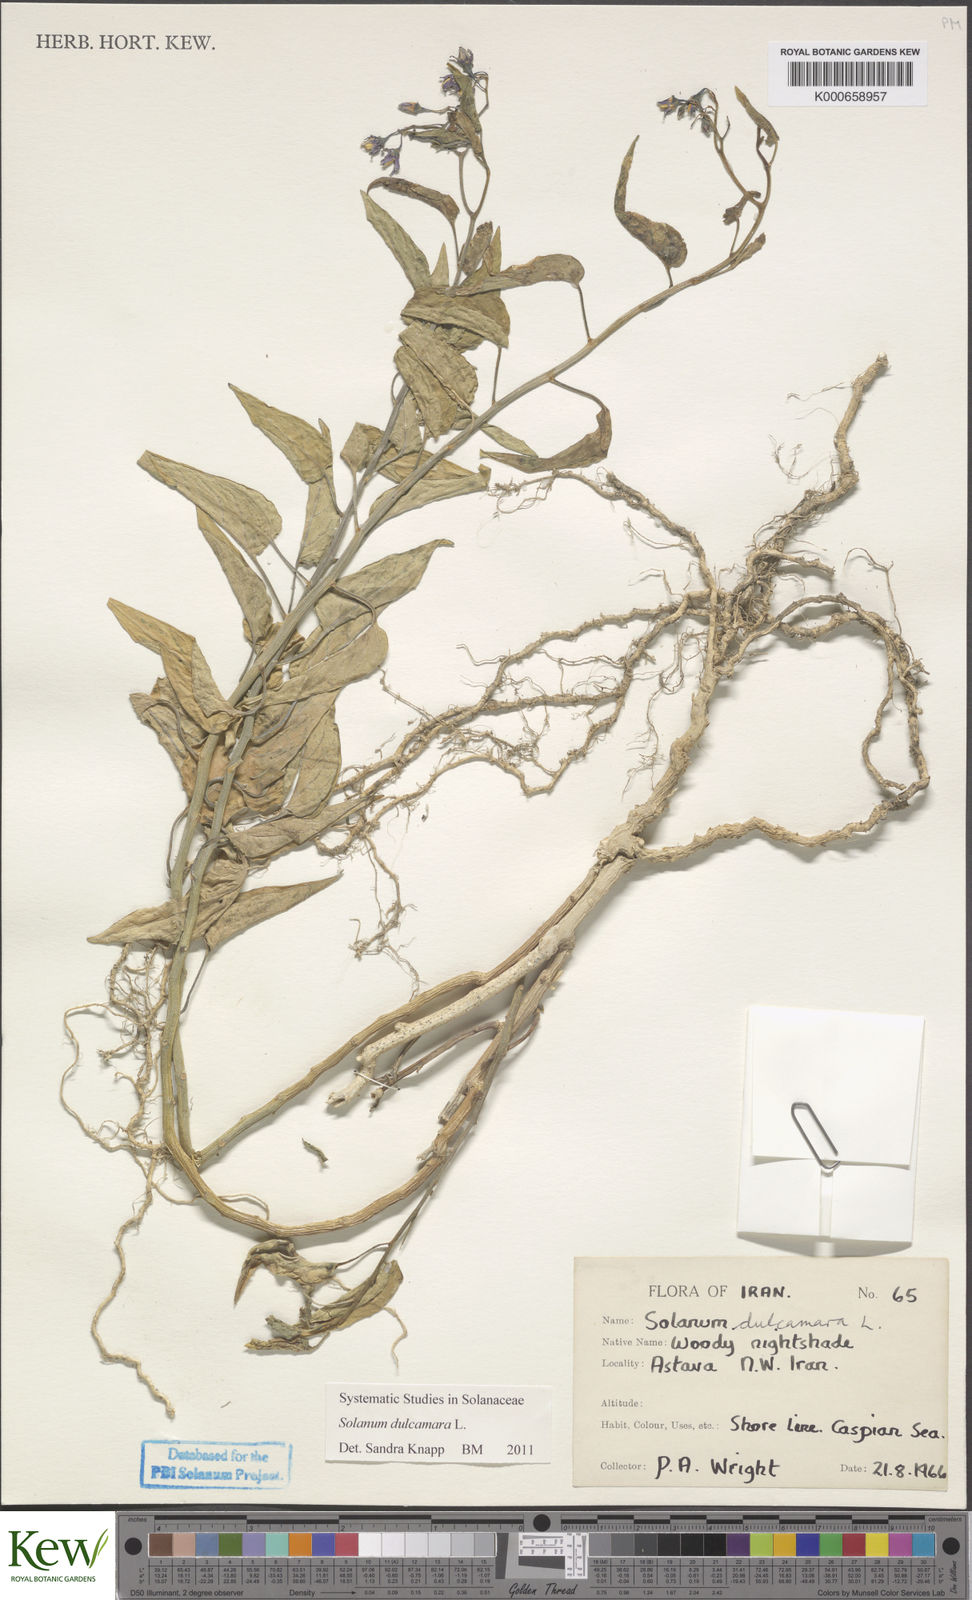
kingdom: Plantae
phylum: Tracheophyta
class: Magnoliopsida
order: Solanales
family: Solanaceae
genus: Solanum
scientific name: Solanum dulcamara
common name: Climbing nightshade
